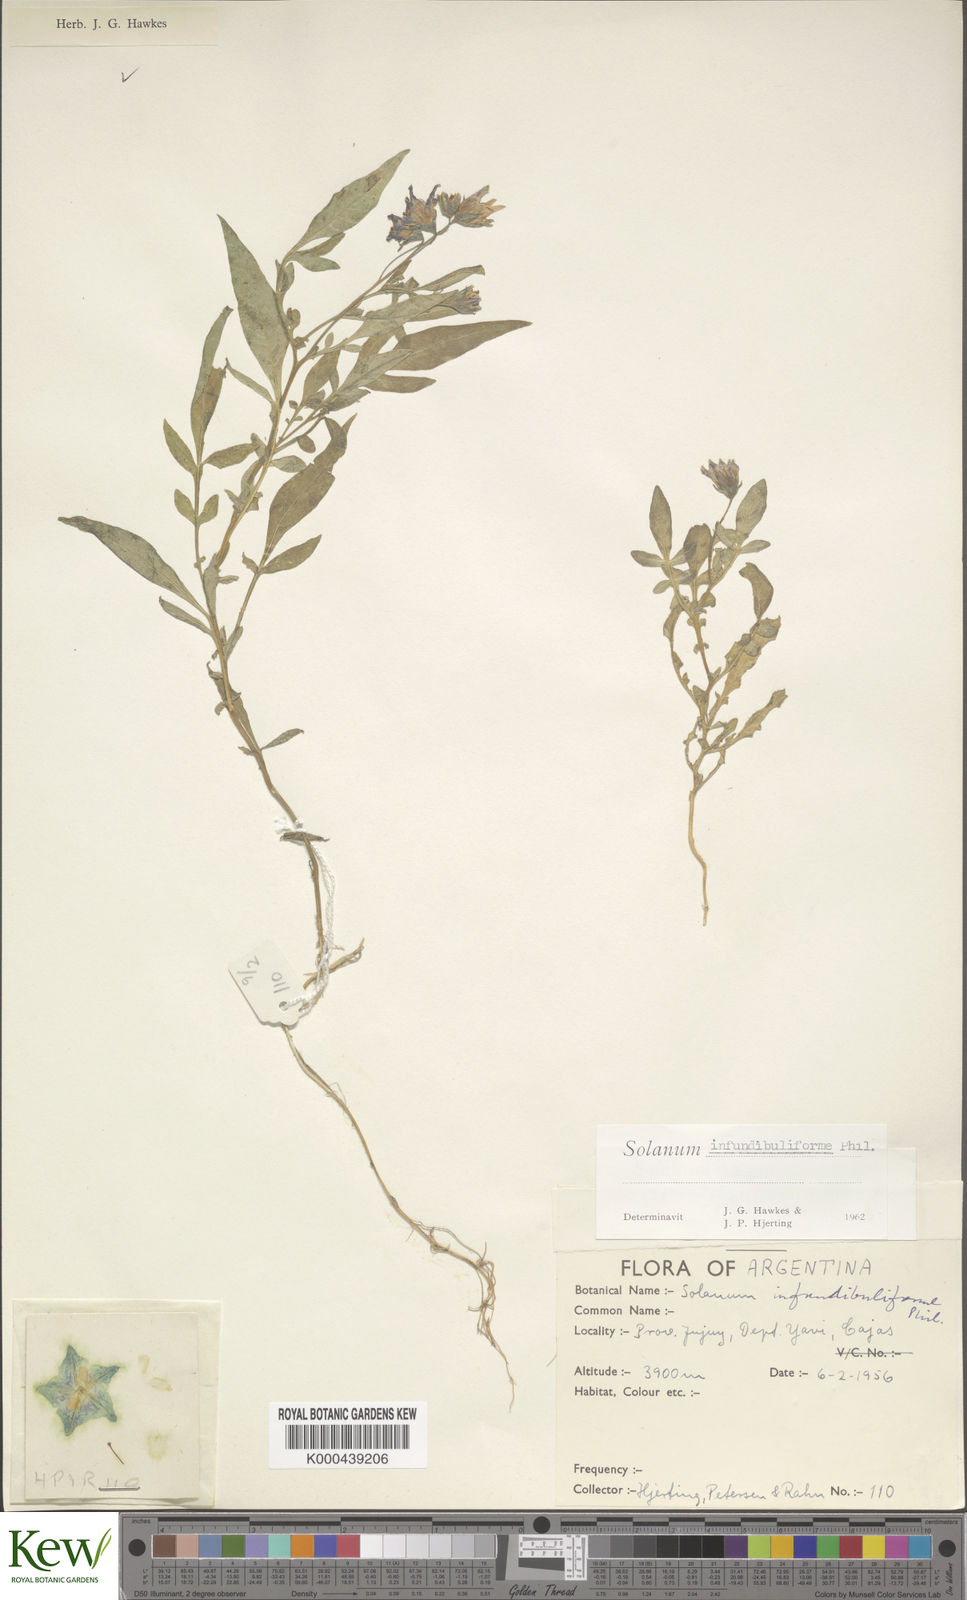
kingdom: Plantae
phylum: Tracheophyta
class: Magnoliopsida
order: Solanales
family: Solanaceae
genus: Solanum
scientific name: Solanum infundibuliforme
